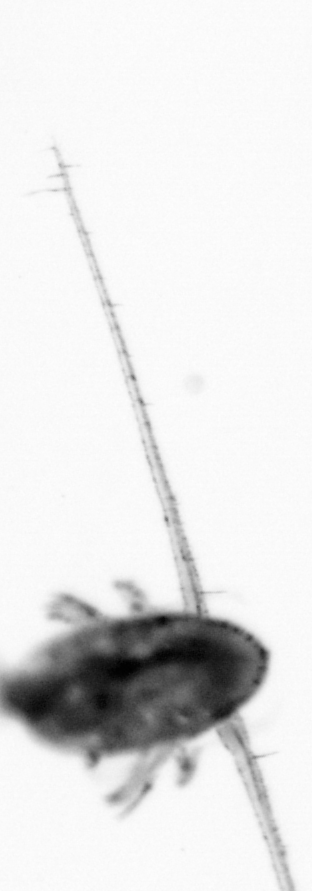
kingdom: Animalia
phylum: Arthropoda
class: Copepoda
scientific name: Copepoda
